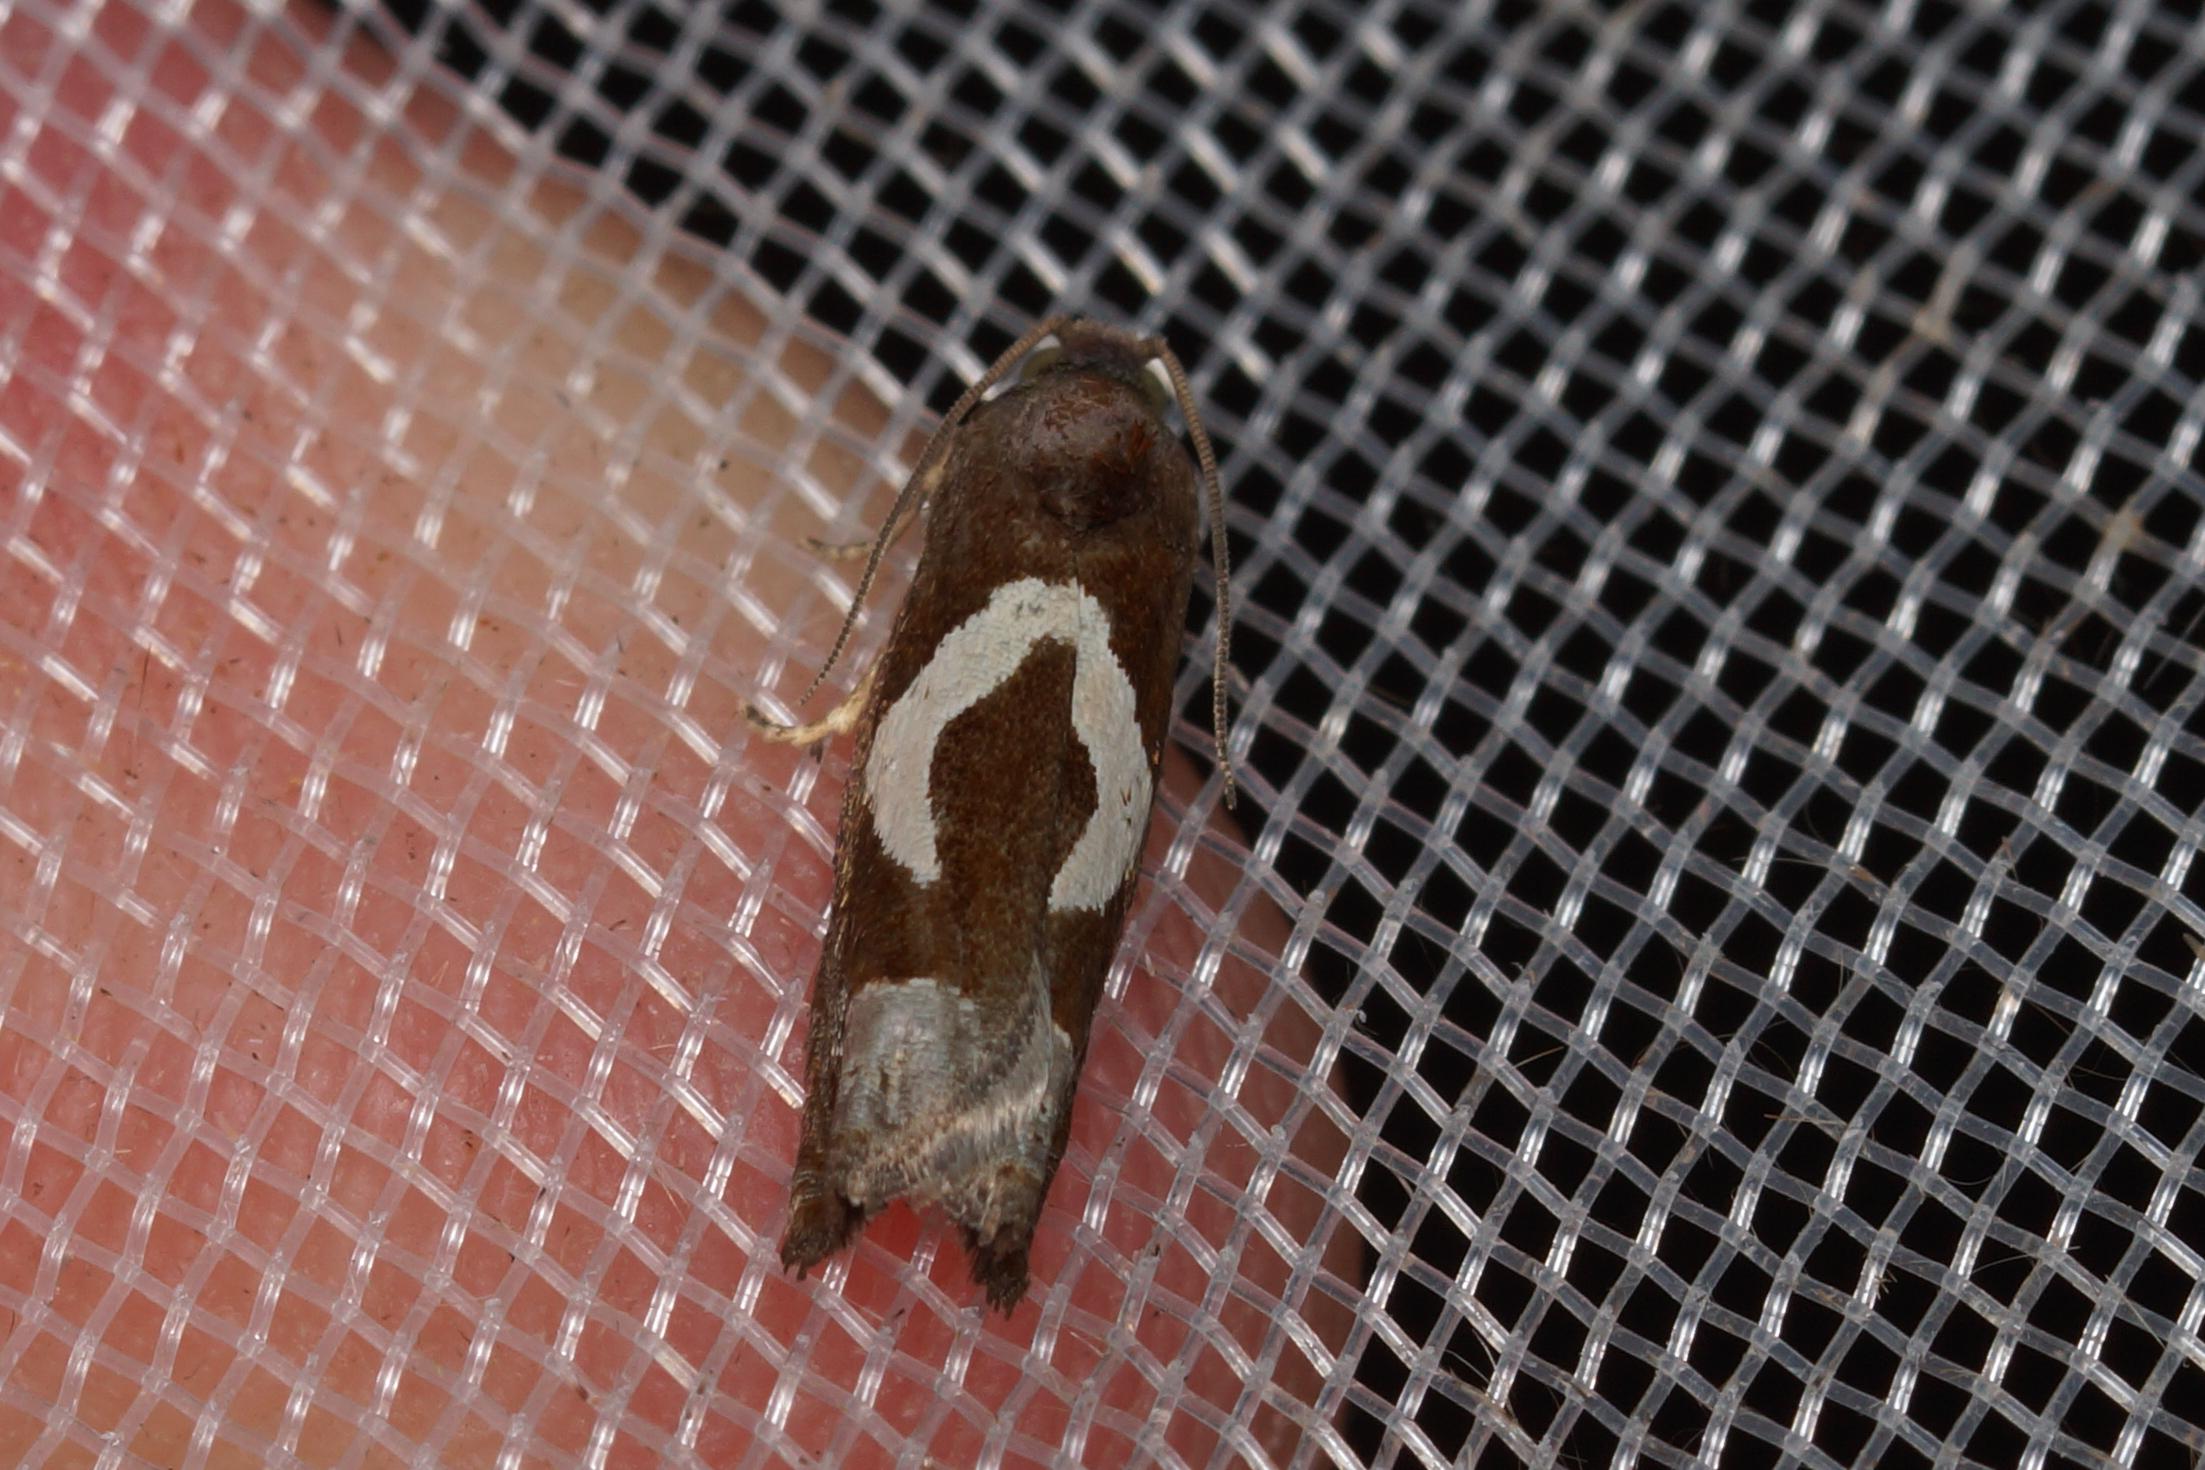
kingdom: Animalia
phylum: Arthropoda
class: Insecta
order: Lepidoptera
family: Tortricidae
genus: Epiblema
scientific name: Epiblema foenella
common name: Gråbynkegallevikler
